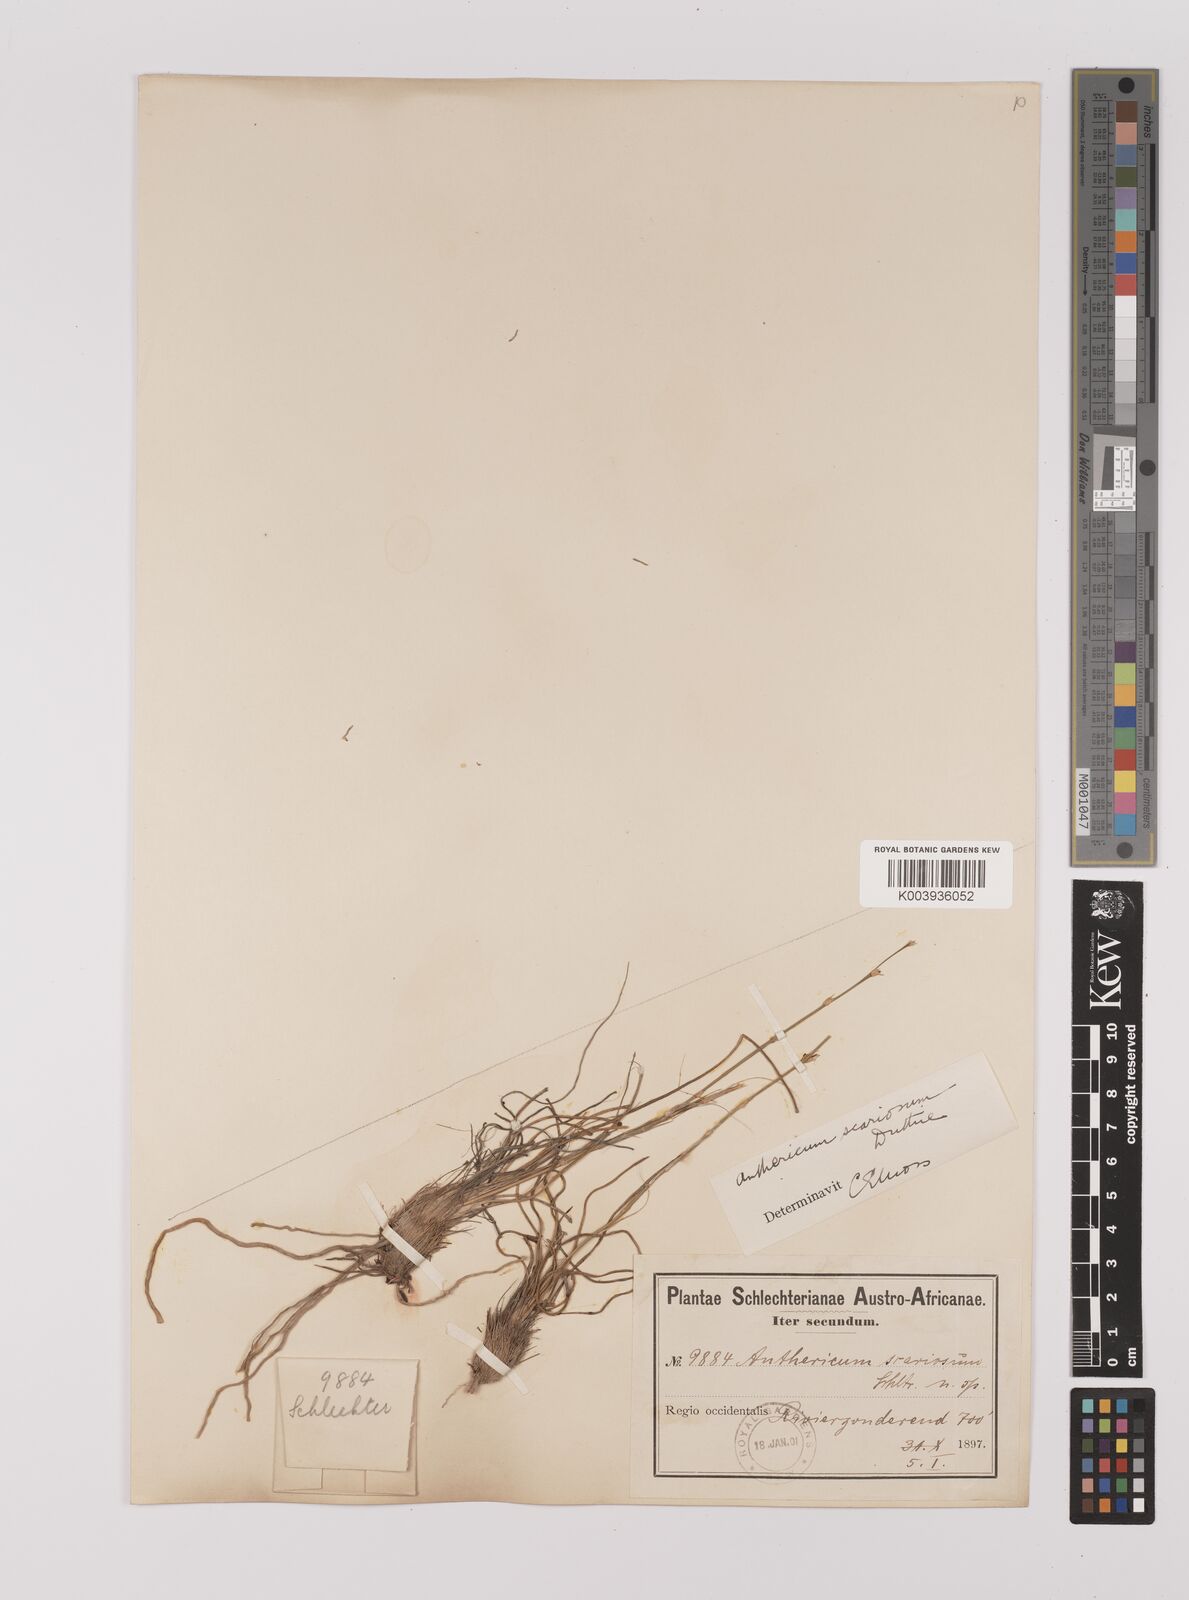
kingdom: Plantae
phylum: Tracheophyta
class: Liliopsida
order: Asparagales
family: Asparagaceae
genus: Chlorophytum
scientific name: Chlorophytum rangei
